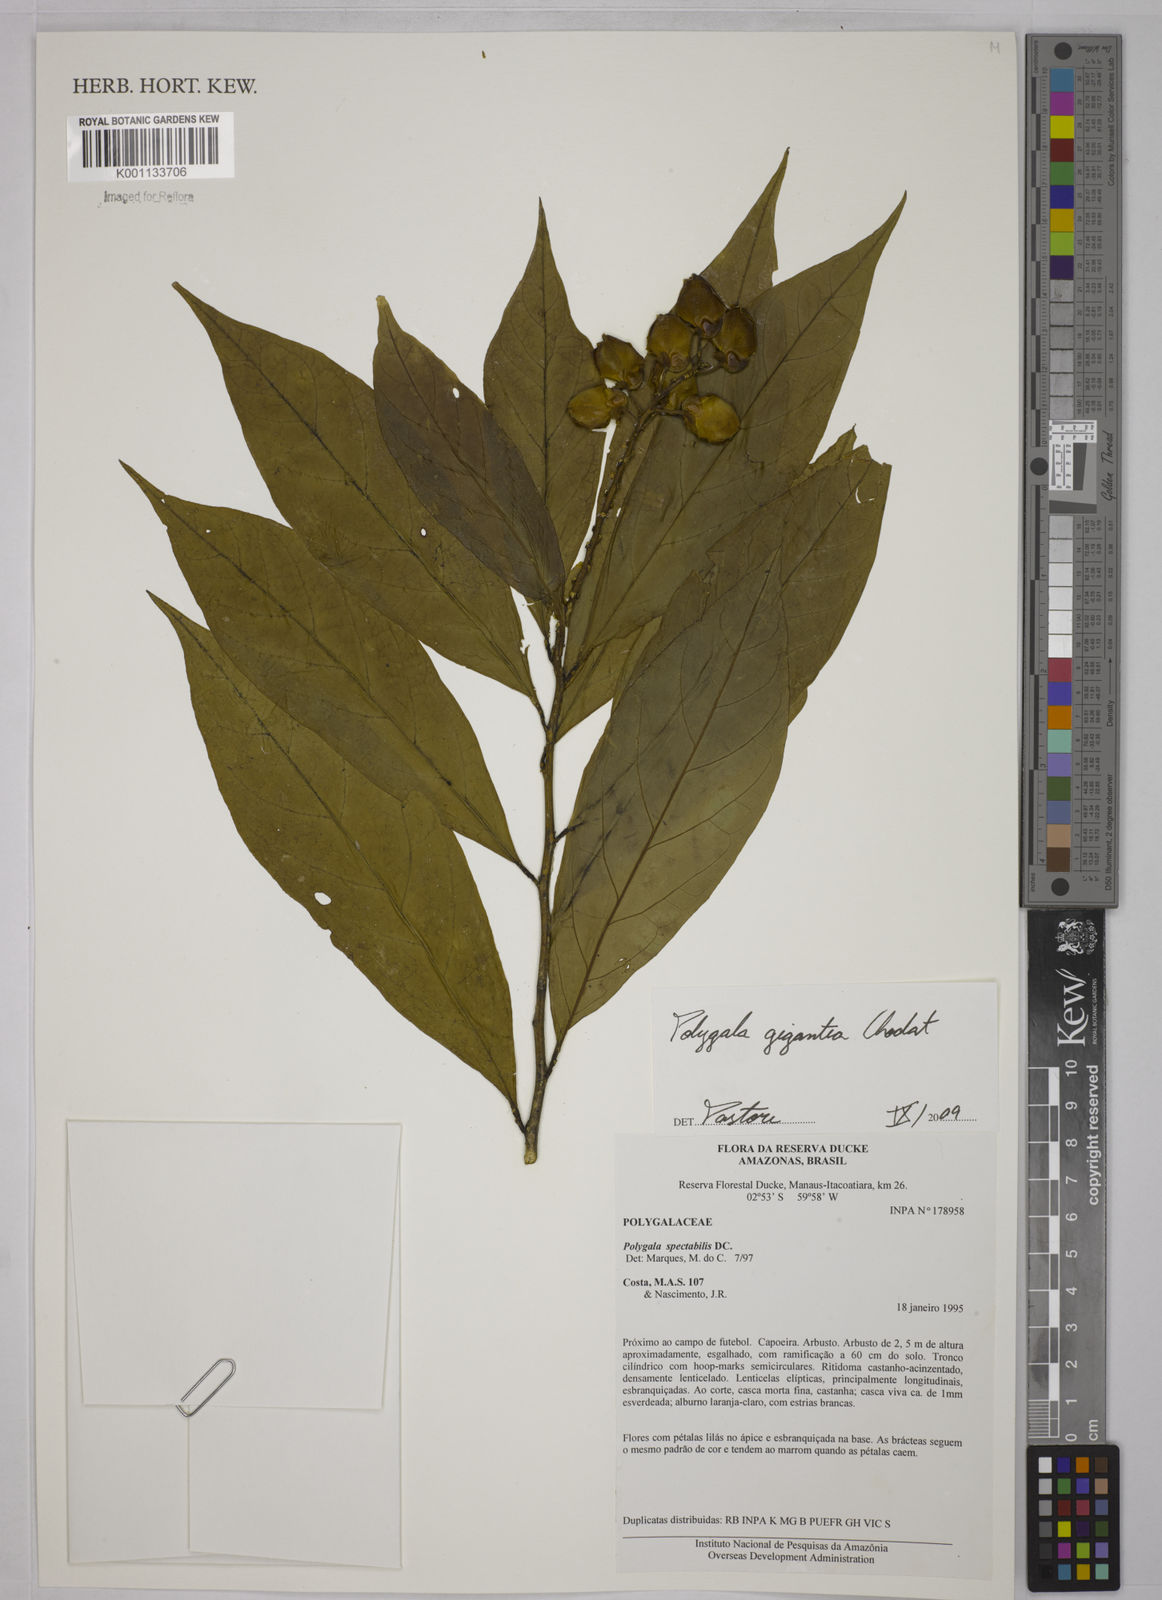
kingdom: Plantae
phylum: Tracheophyta
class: Magnoliopsida
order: Fabales
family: Polygalaceae
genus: Caamembeca
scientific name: Caamembeca gigantea
